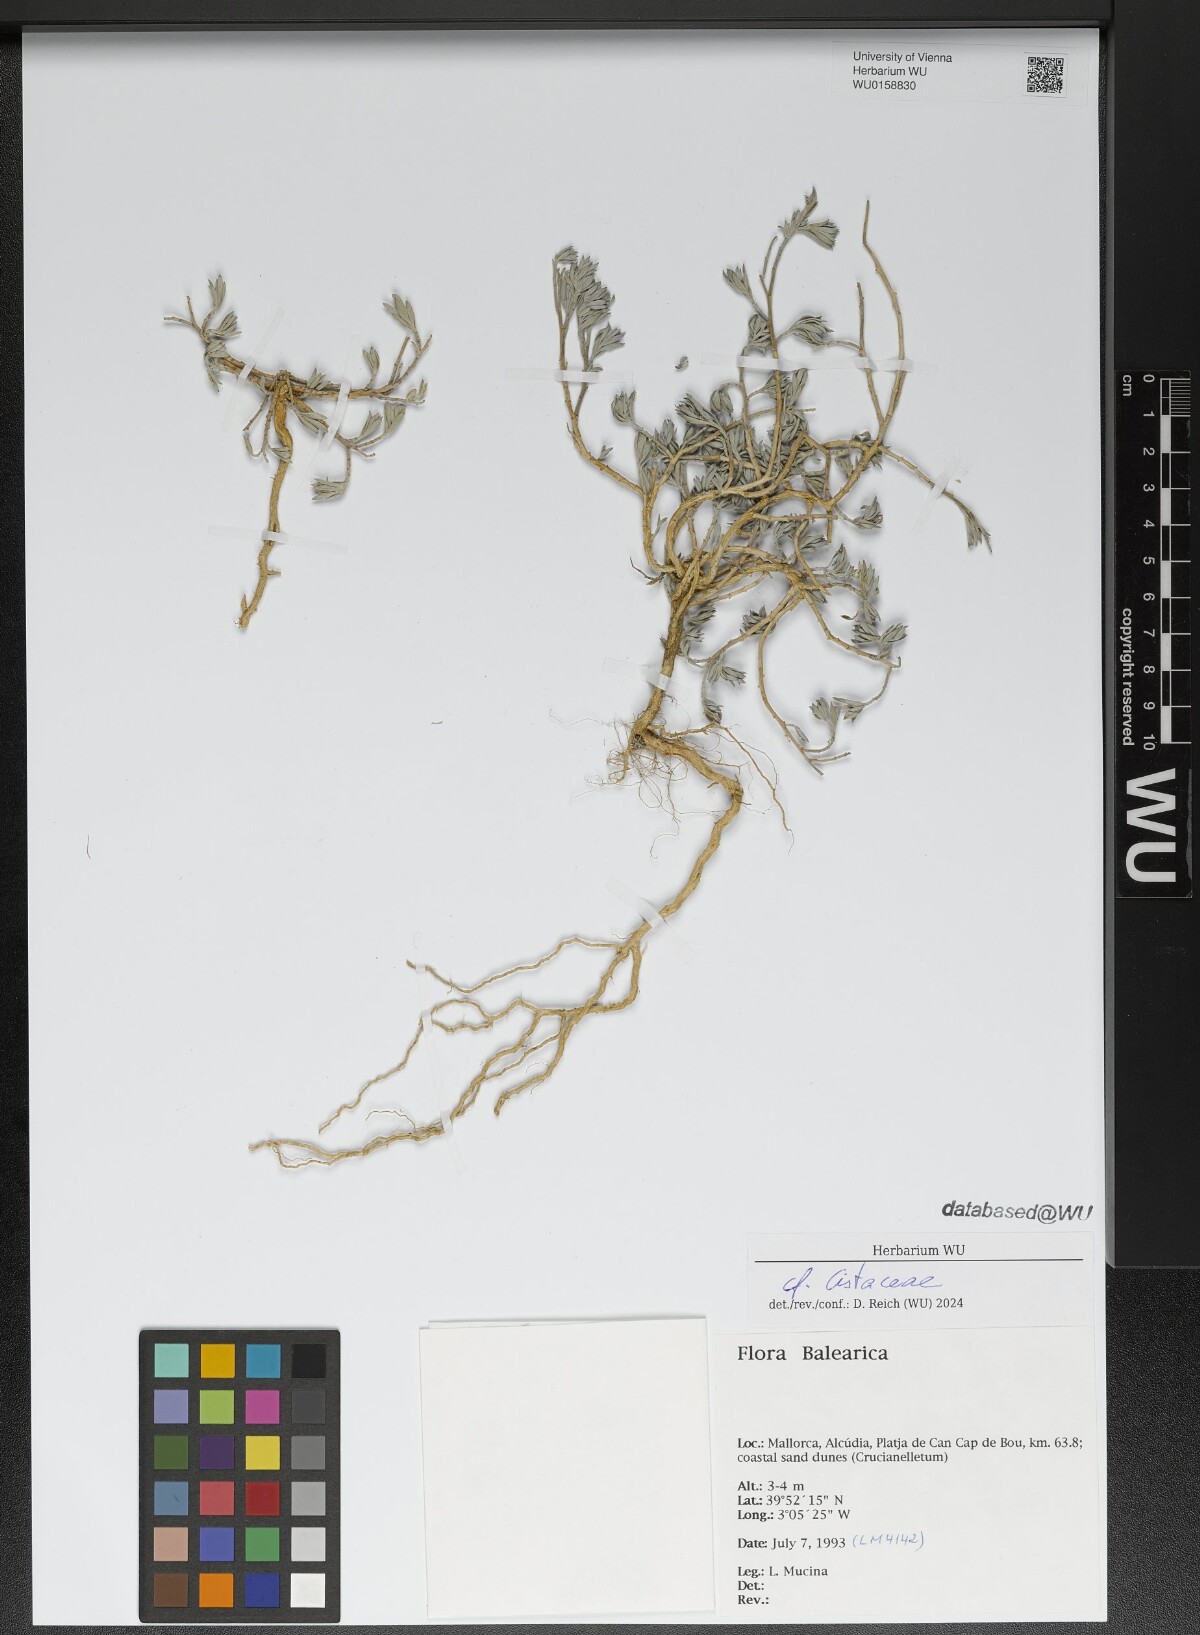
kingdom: Plantae
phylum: Tracheophyta
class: Magnoliopsida
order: Malvales
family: Cistaceae
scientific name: Cistaceae
